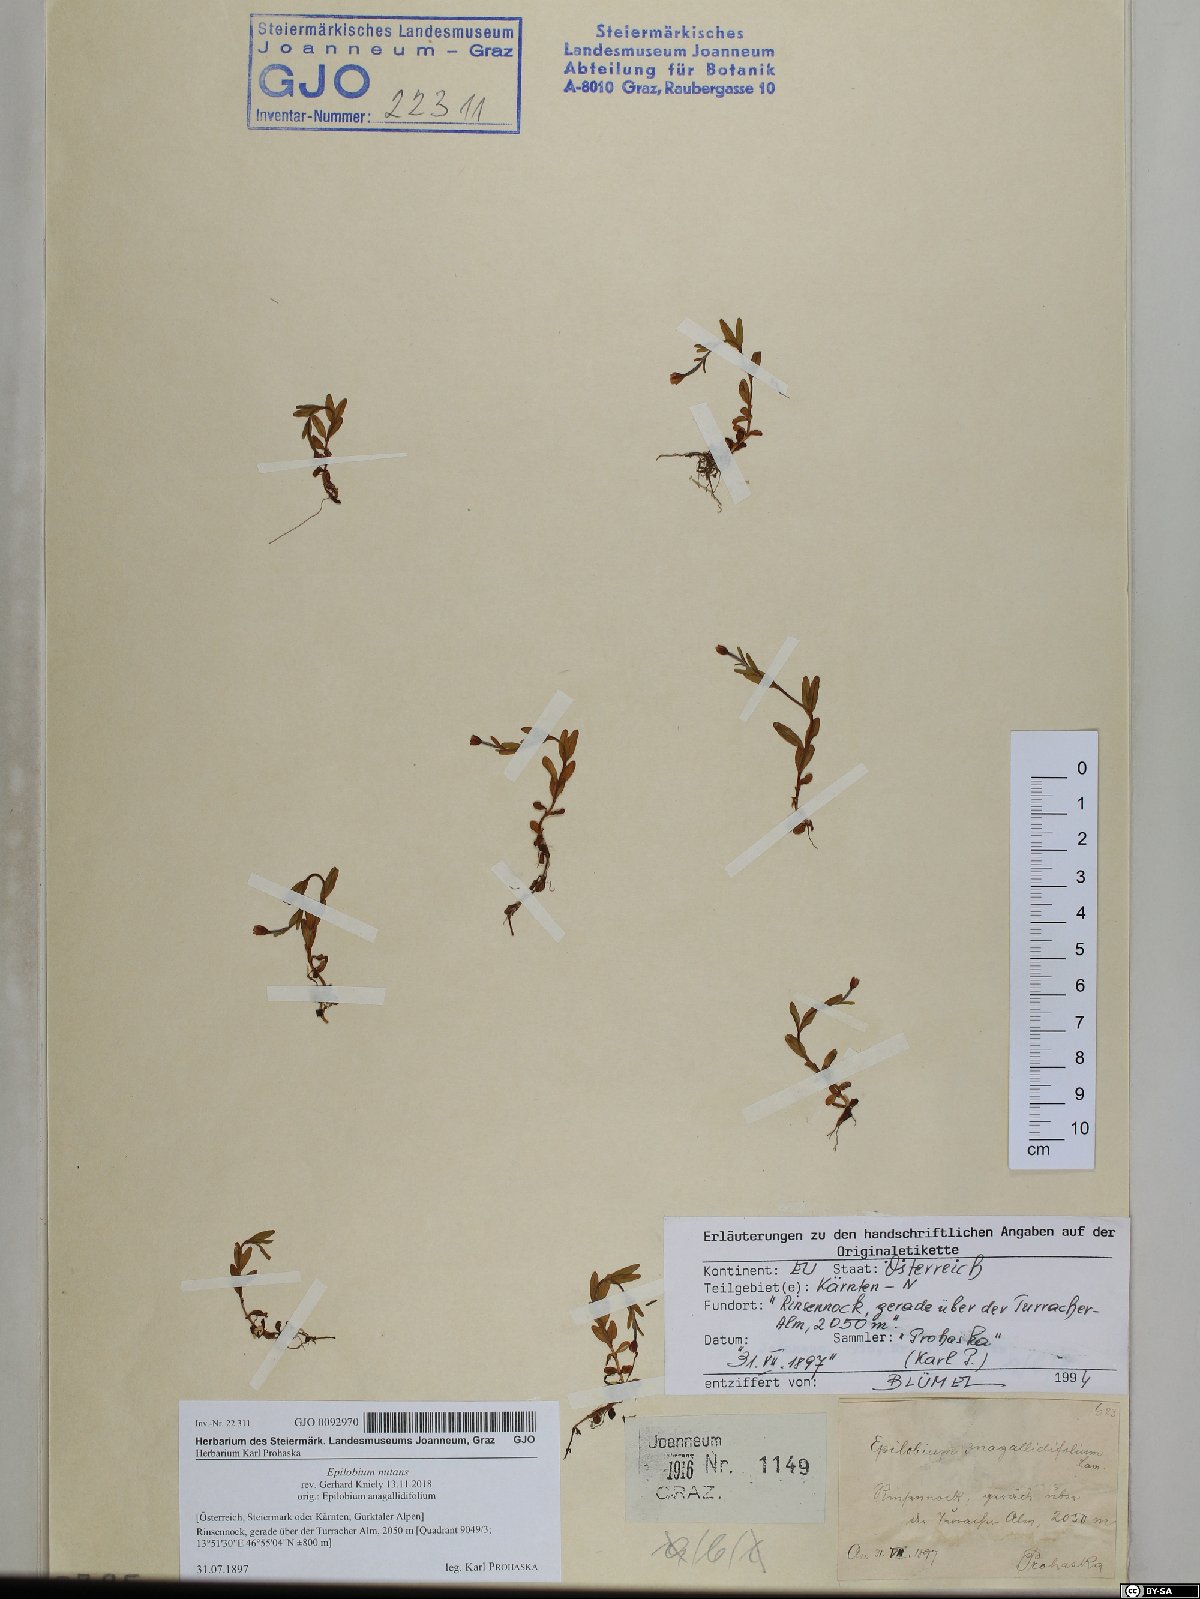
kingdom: Plantae
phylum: Tracheophyta
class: Magnoliopsida
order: Myrtales
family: Onagraceae
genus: Epilobium
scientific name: Epilobium nutans
